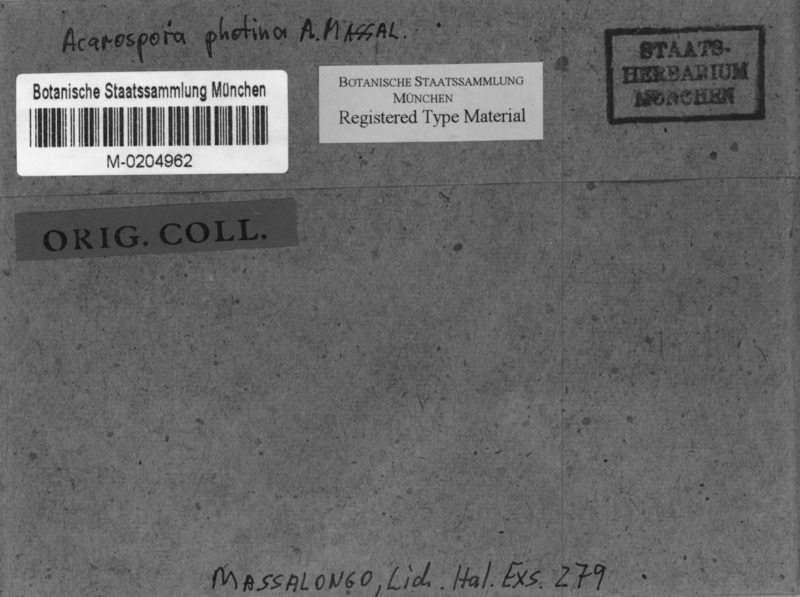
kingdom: Fungi
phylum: Ascomycota
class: Lecanoromycetes
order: Acarosporales
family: Acarosporaceae
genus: Acarospora
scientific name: Acarospora photina
